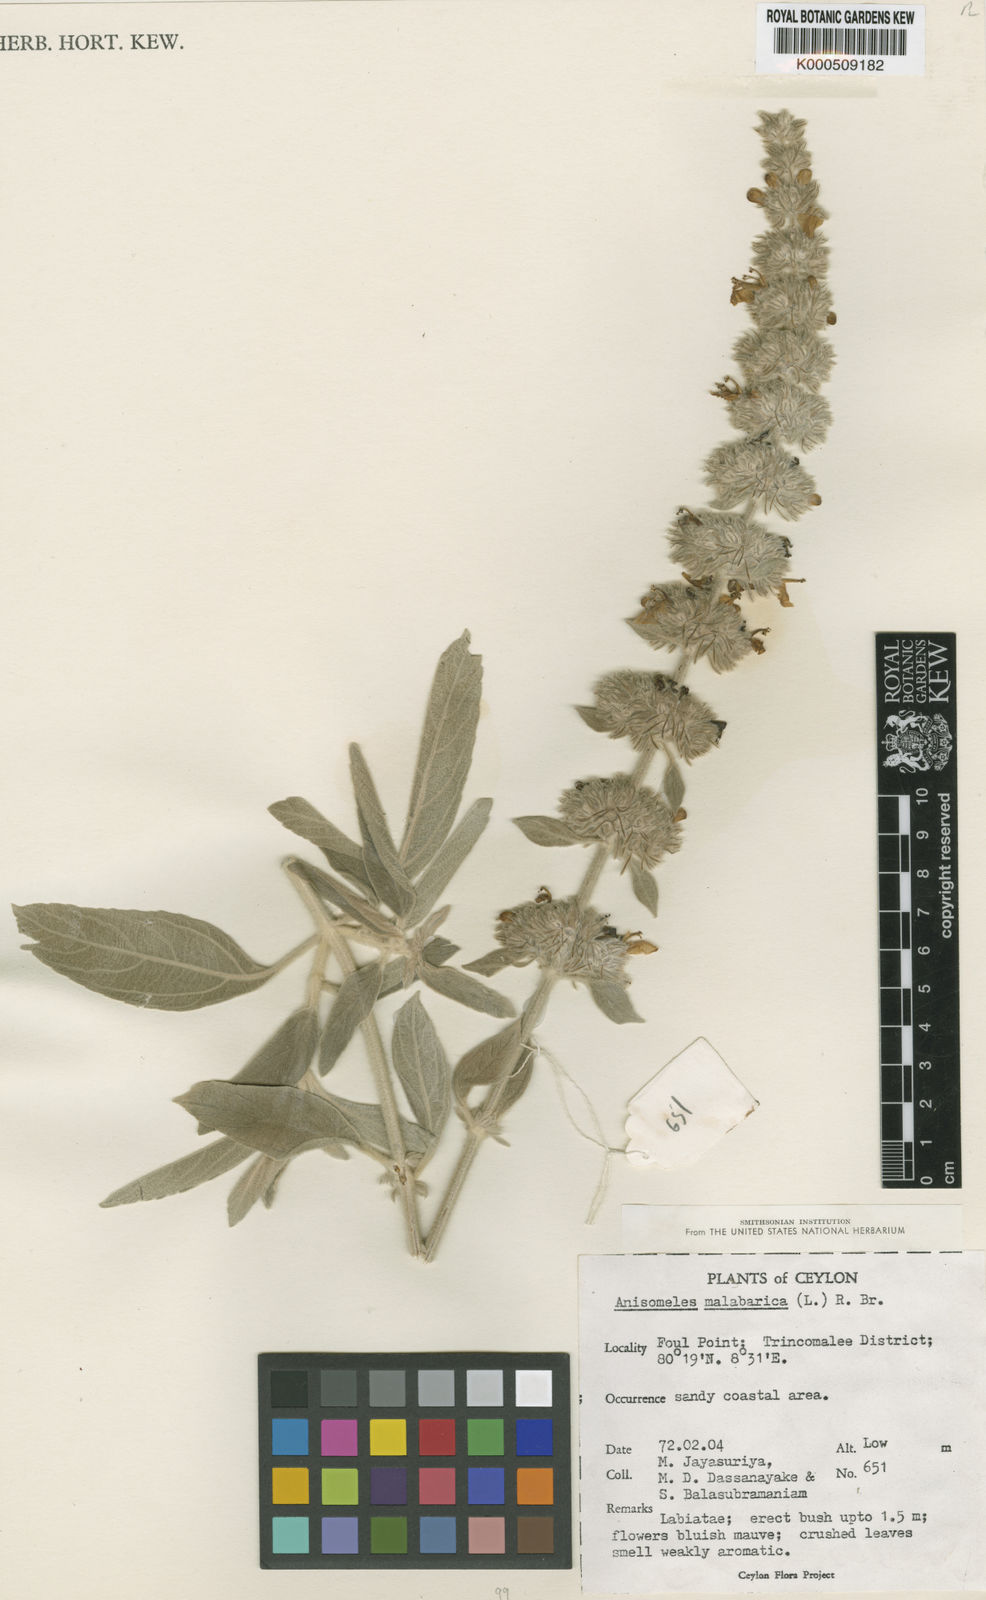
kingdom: Plantae
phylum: Tracheophyta
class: Magnoliopsida
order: Lamiales
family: Lamiaceae
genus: Anisomeles
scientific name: Anisomeles
